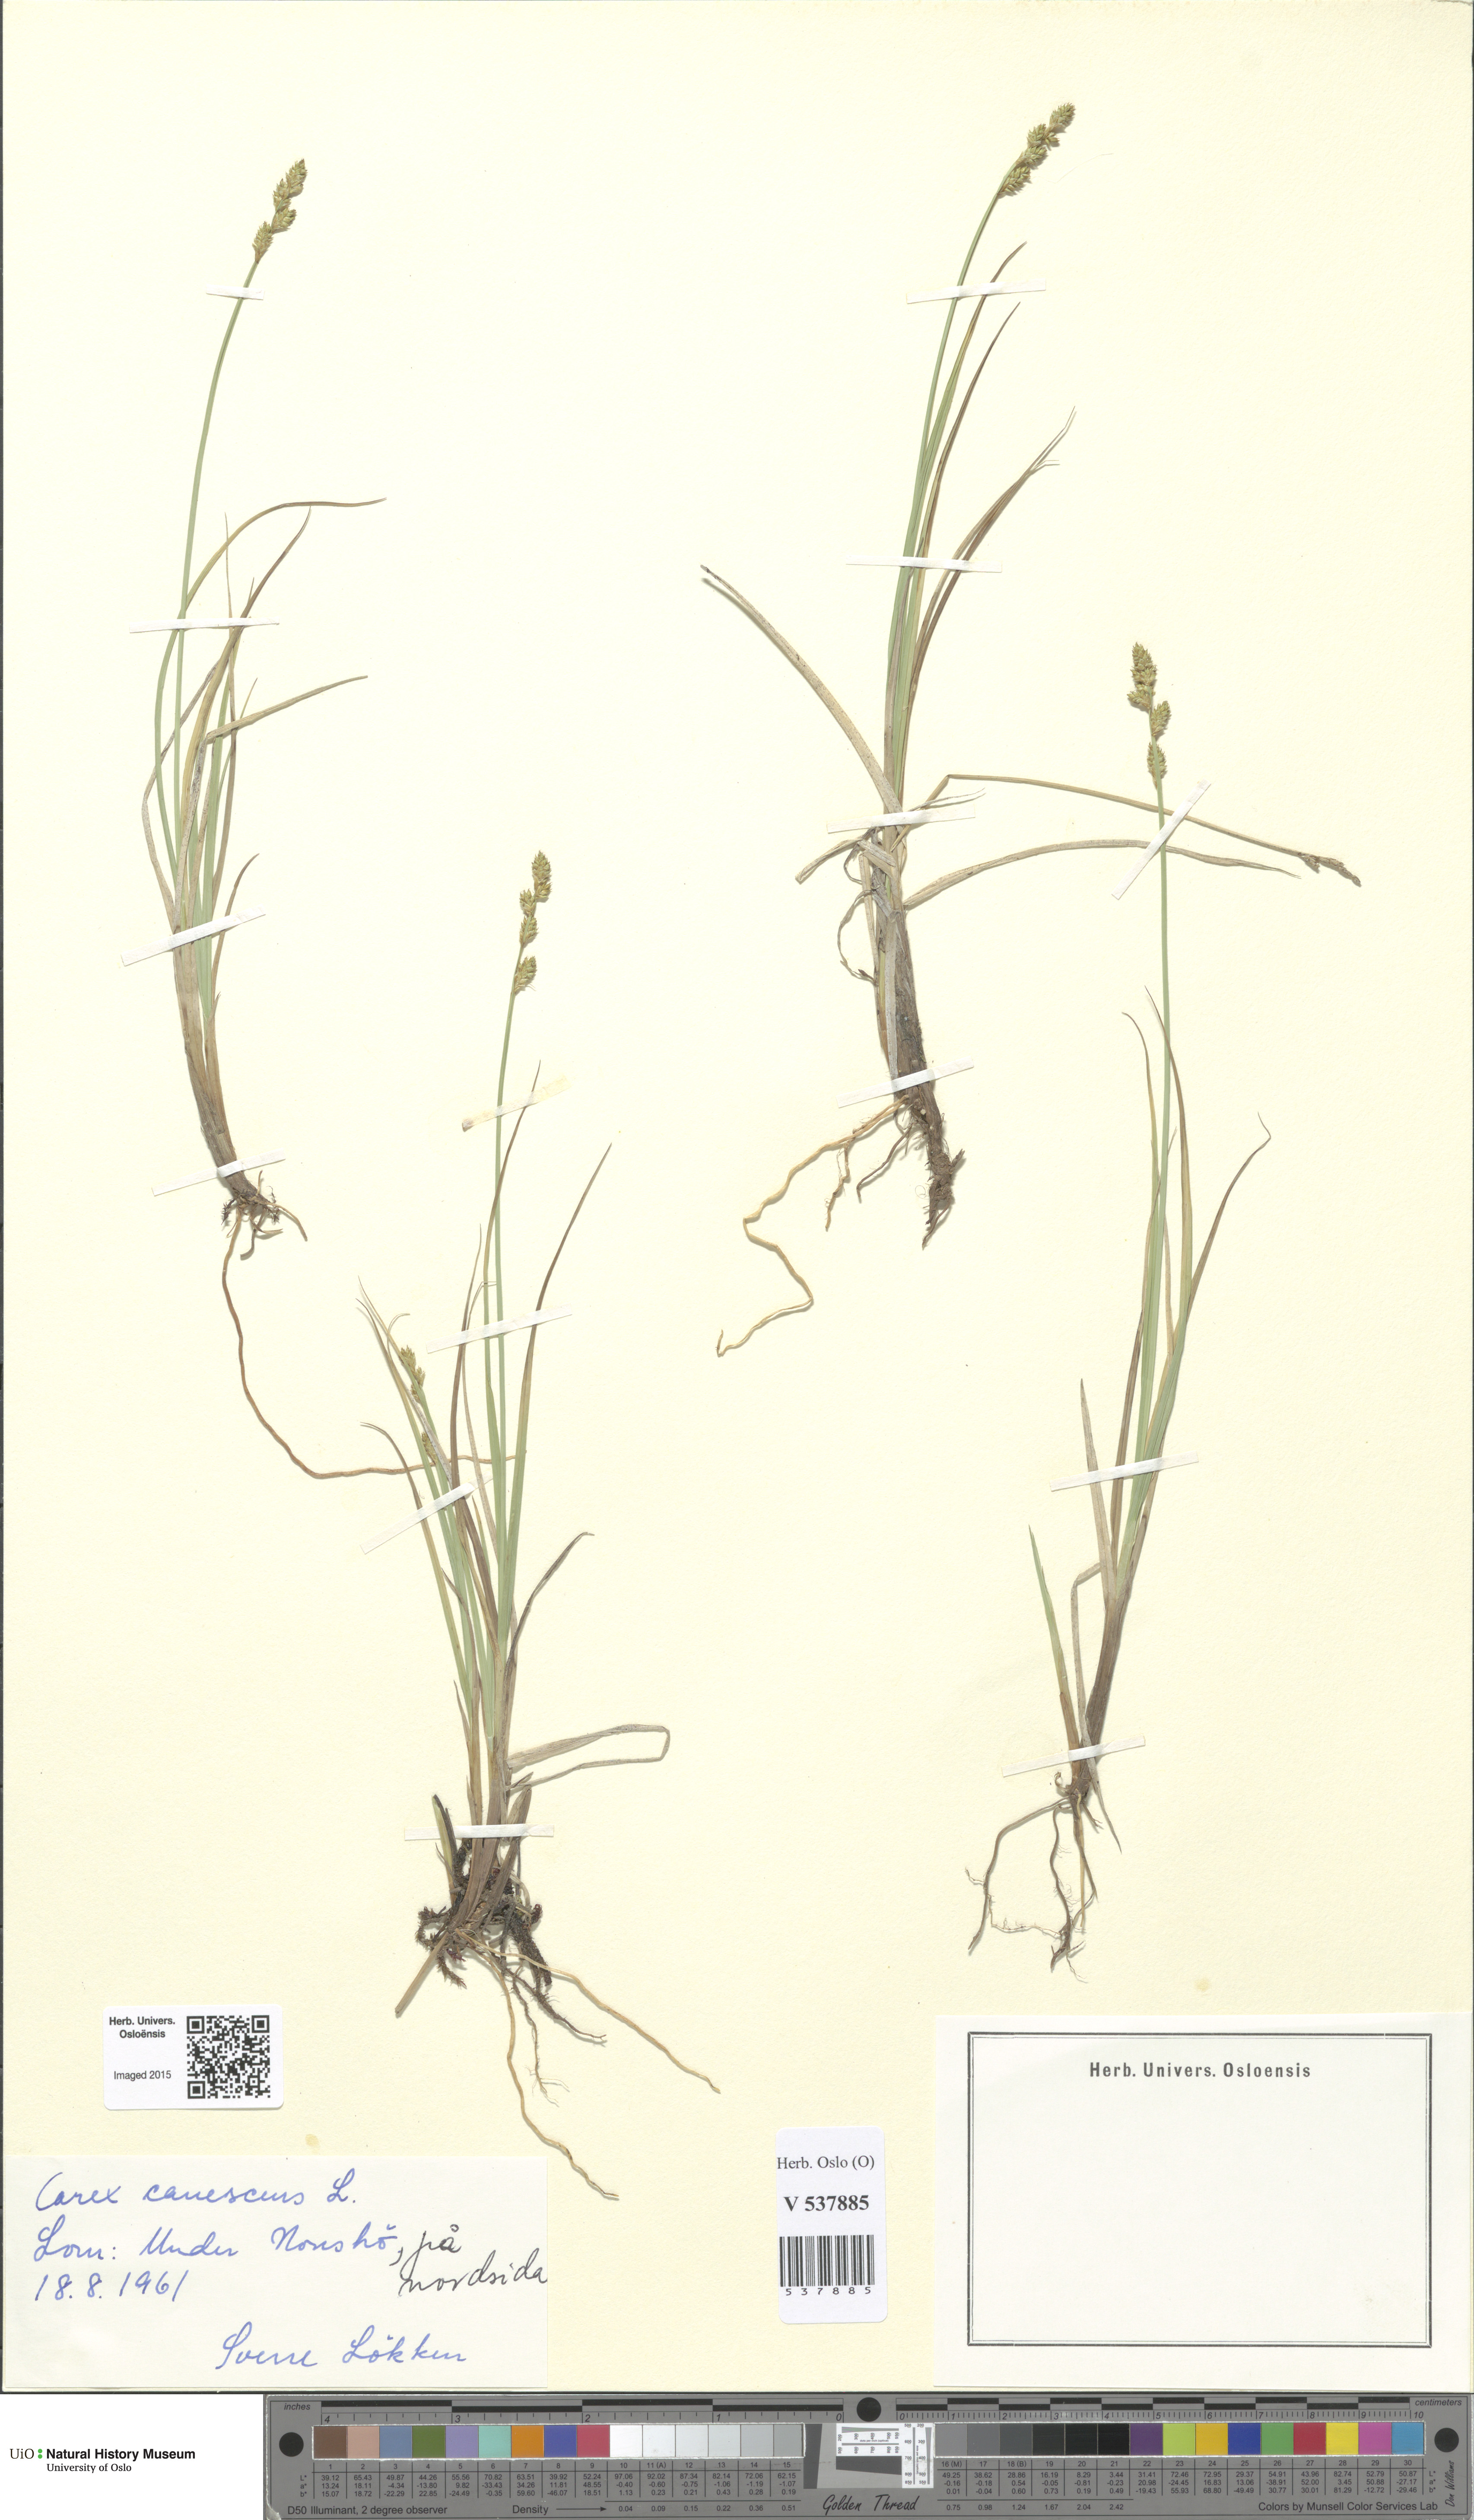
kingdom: Plantae
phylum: Tracheophyta
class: Liliopsida
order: Poales
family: Cyperaceae
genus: Carex
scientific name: Carex canescens
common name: White sedge
